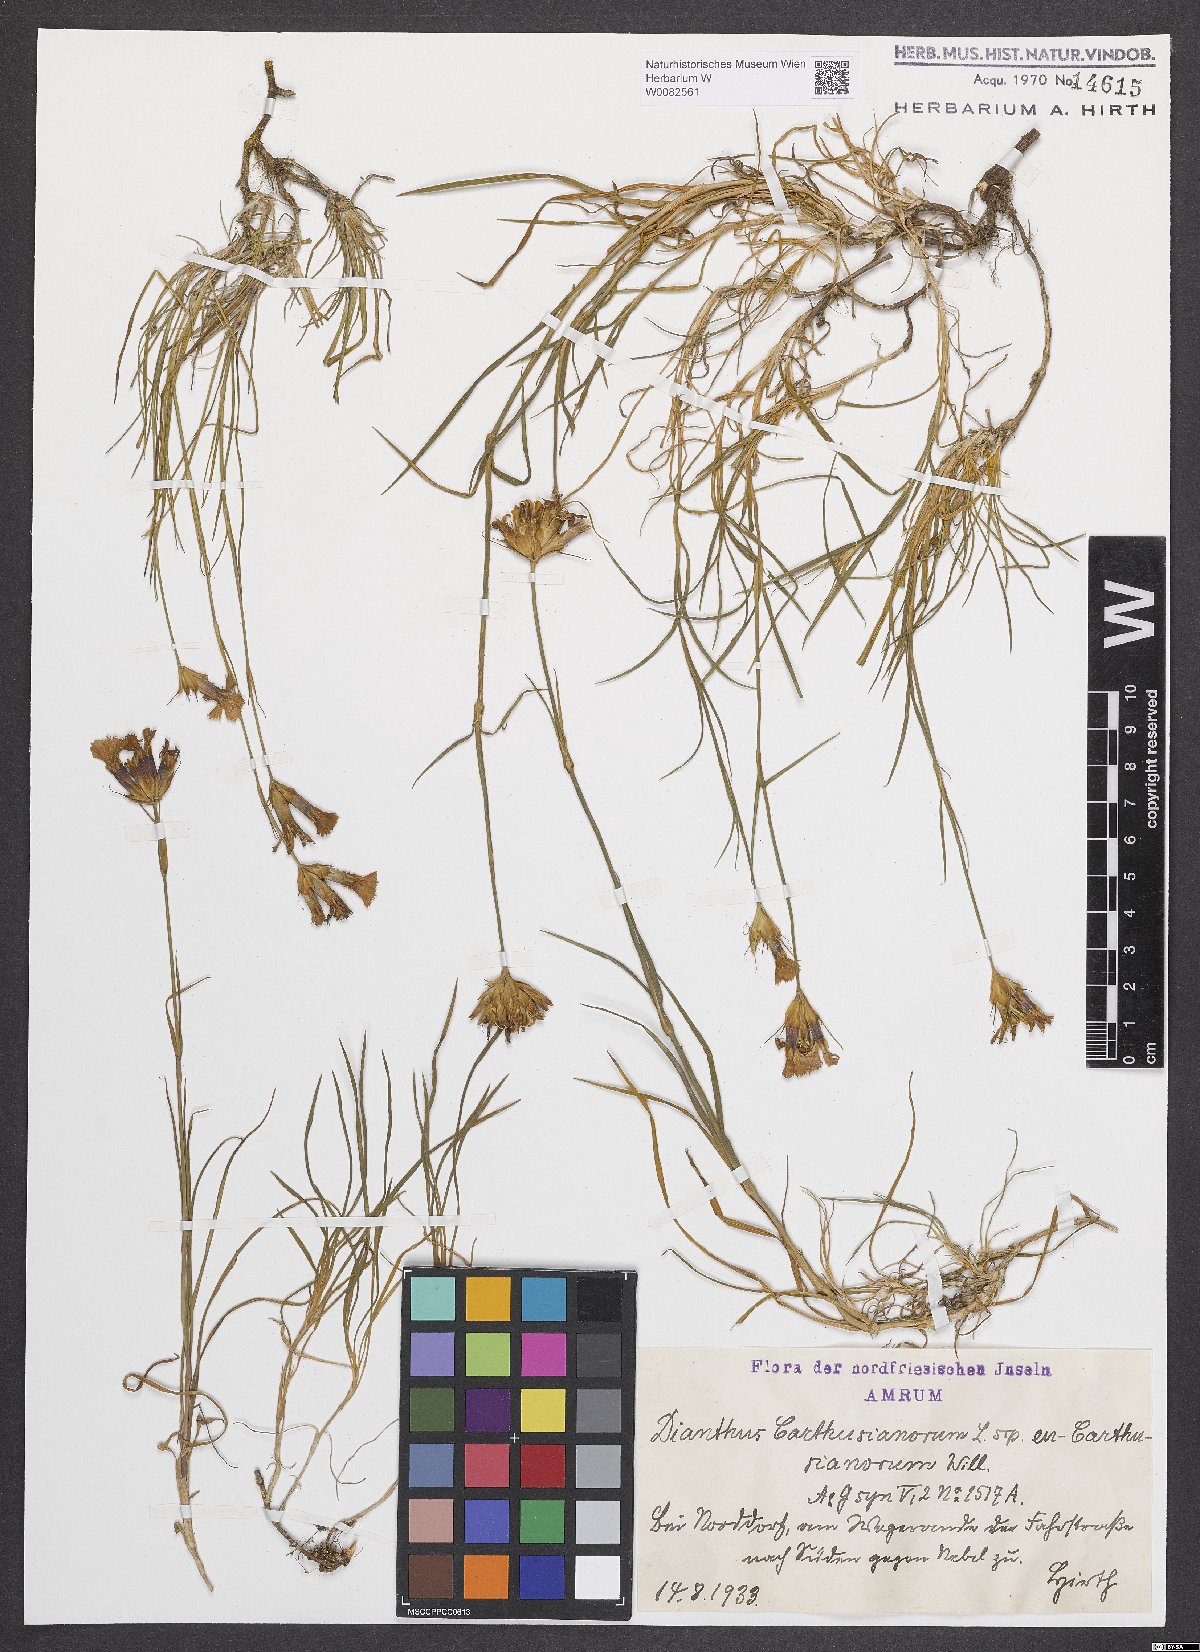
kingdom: Plantae
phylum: Tracheophyta
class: Magnoliopsida
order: Caryophyllales
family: Caryophyllaceae
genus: Dianthus
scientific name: Dianthus carthusianorum
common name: Carthusian pink
